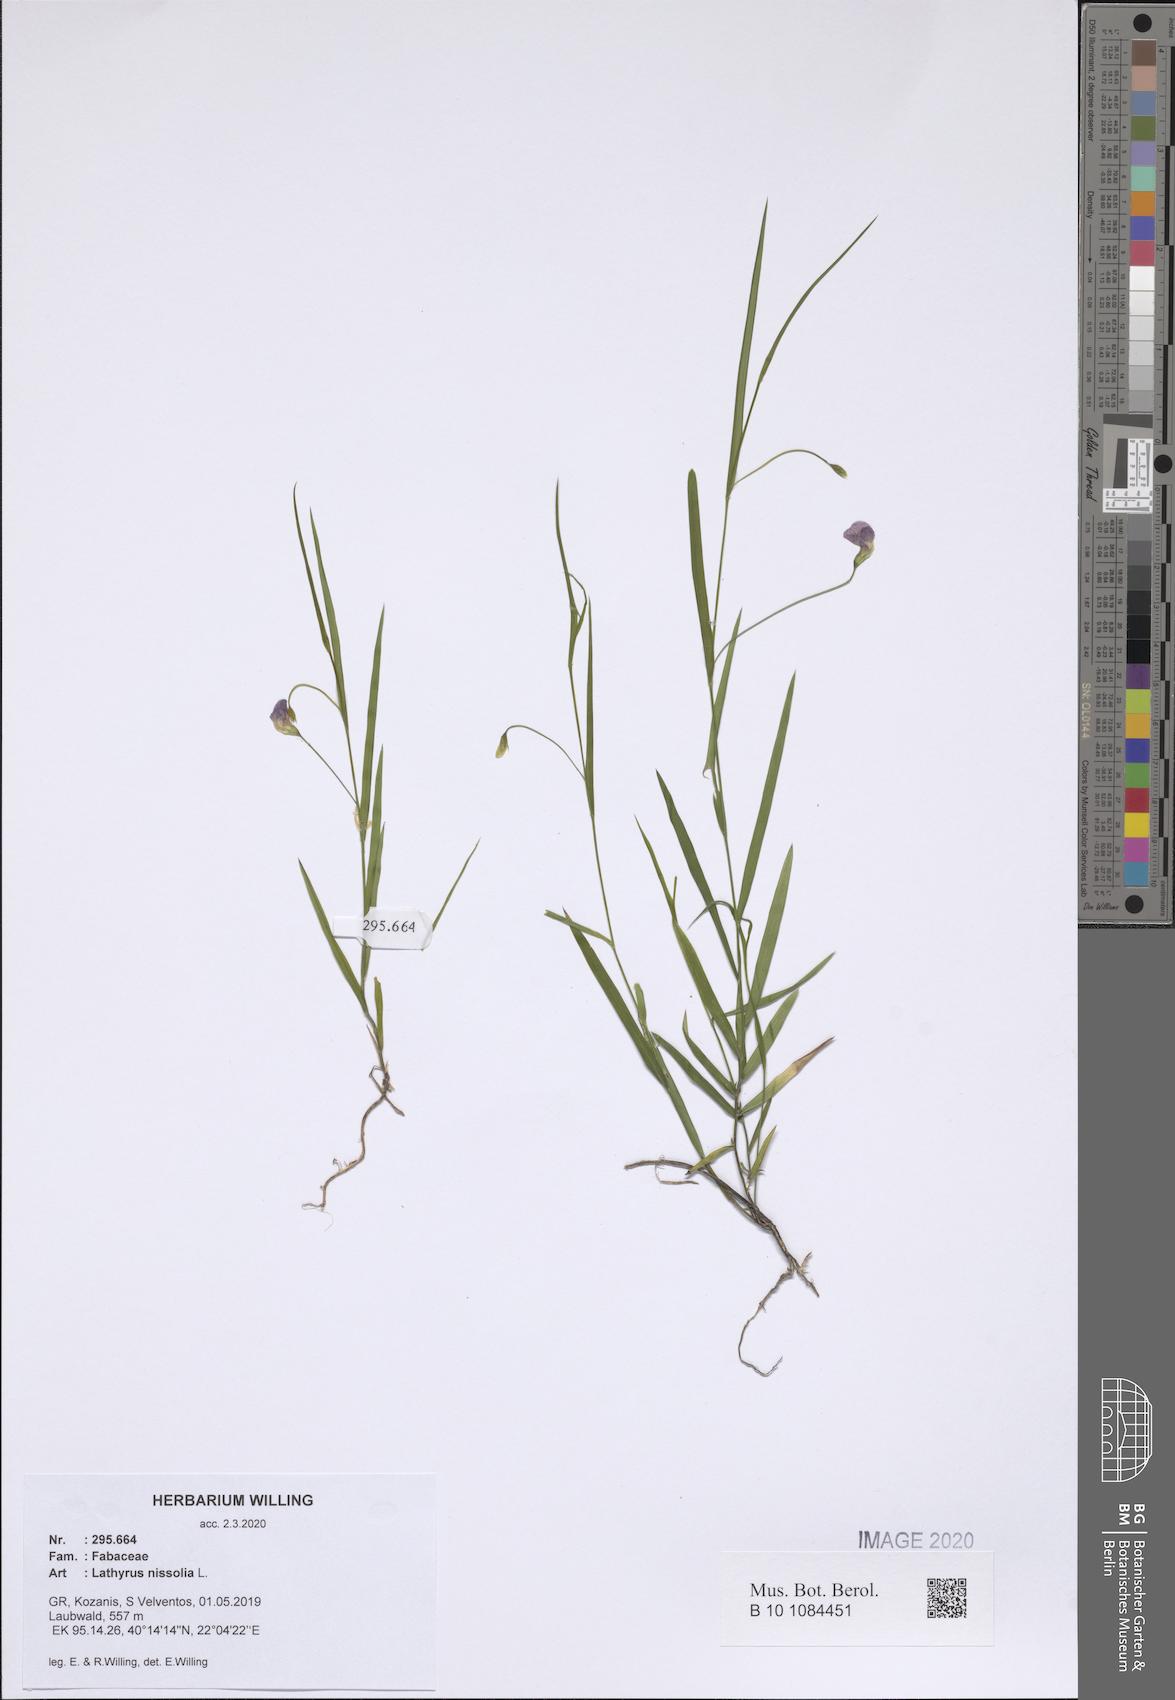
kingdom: Plantae
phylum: Tracheophyta
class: Magnoliopsida
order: Fabales
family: Fabaceae
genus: Lathyrus
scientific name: Lathyrus nissolia
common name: Grass vetchling
